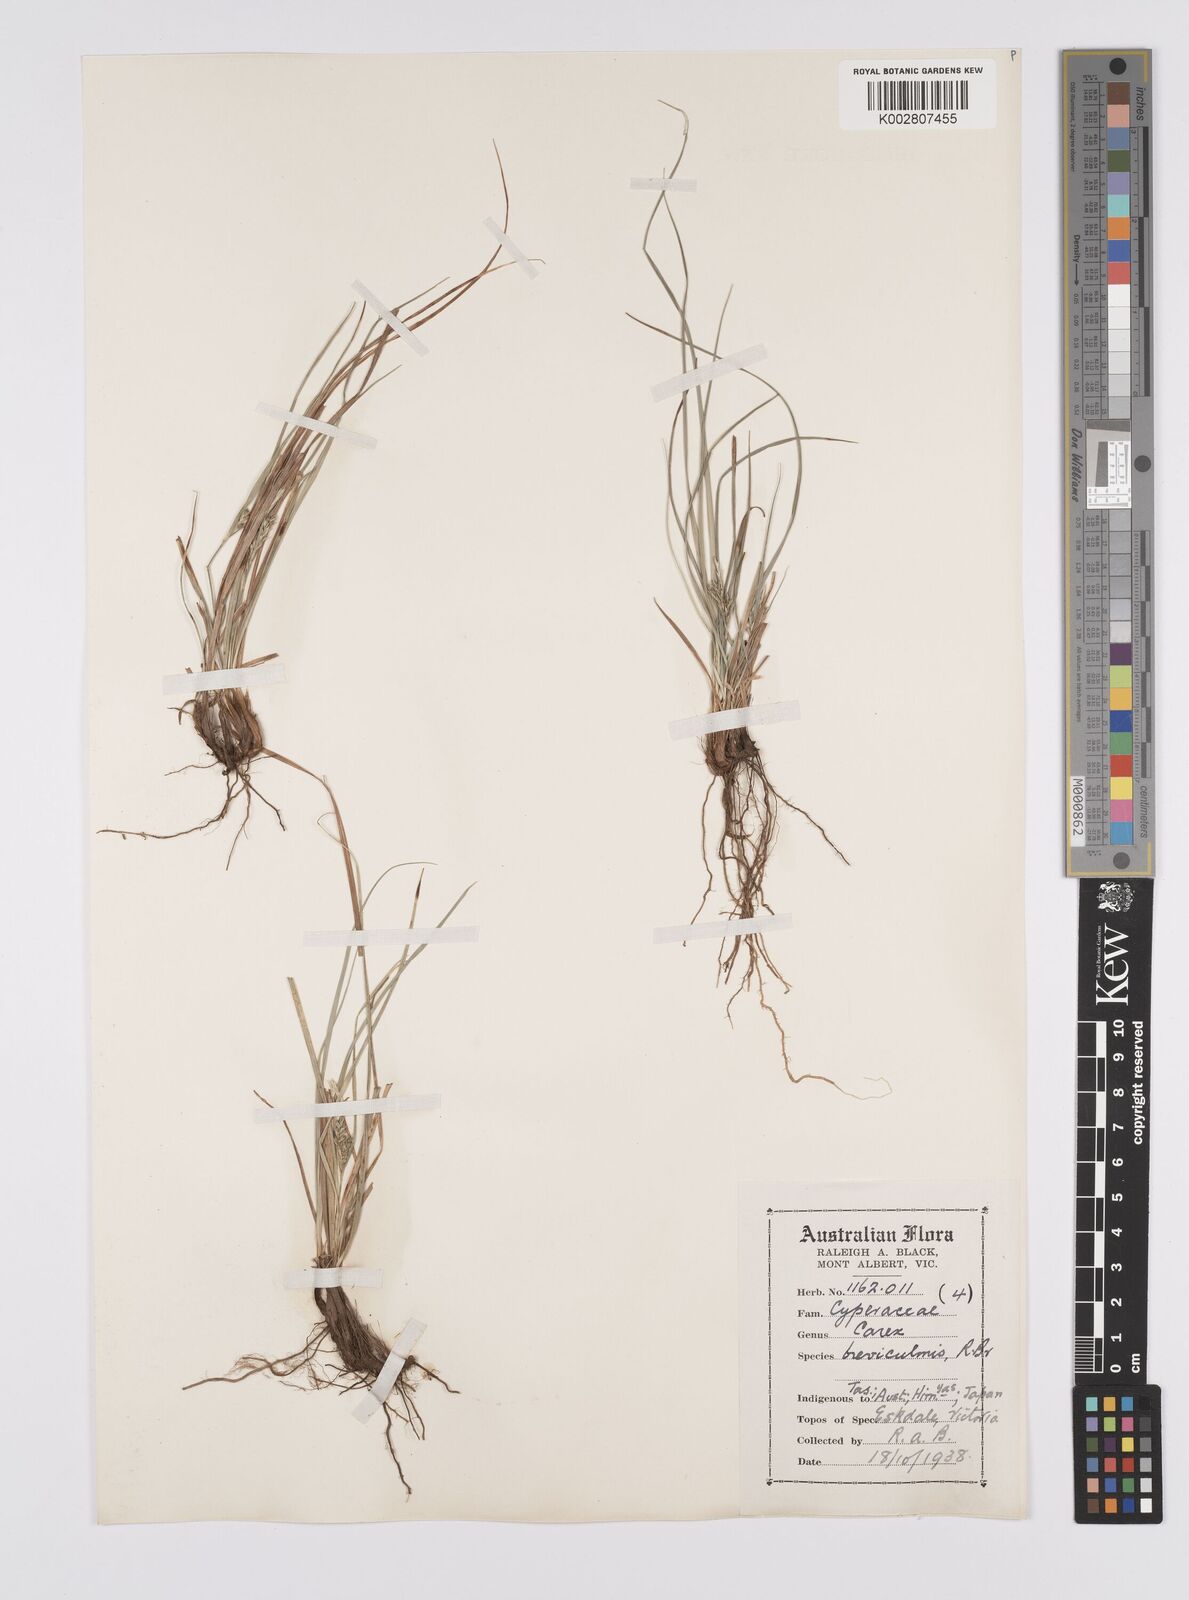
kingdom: Plantae
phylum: Tracheophyta
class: Liliopsida
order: Poales
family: Cyperaceae
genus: Carex
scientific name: Carex breviculmis
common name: Asian shortstem sedge
